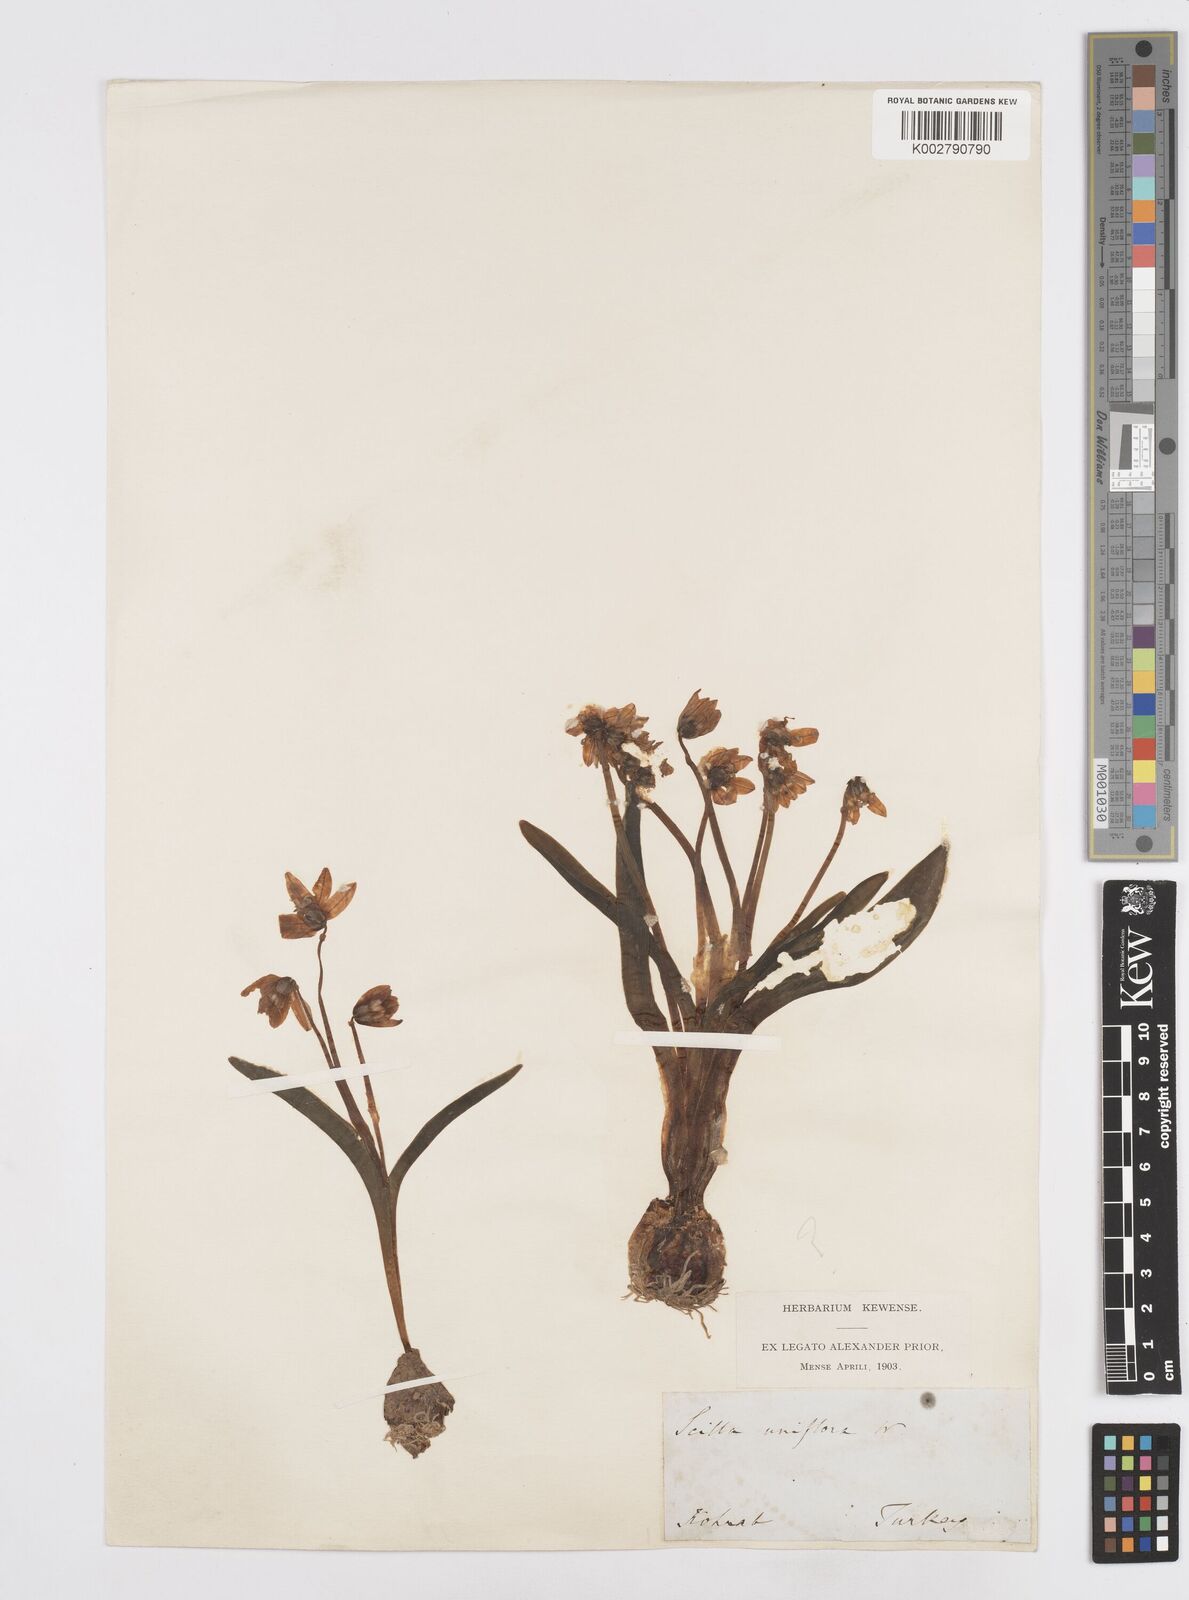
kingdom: Plantae
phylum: Tracheophyta
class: Liliopsida
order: Asparagales
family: Asparagaceae
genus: Scilla
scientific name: Scilla siberica
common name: Siberian squill
